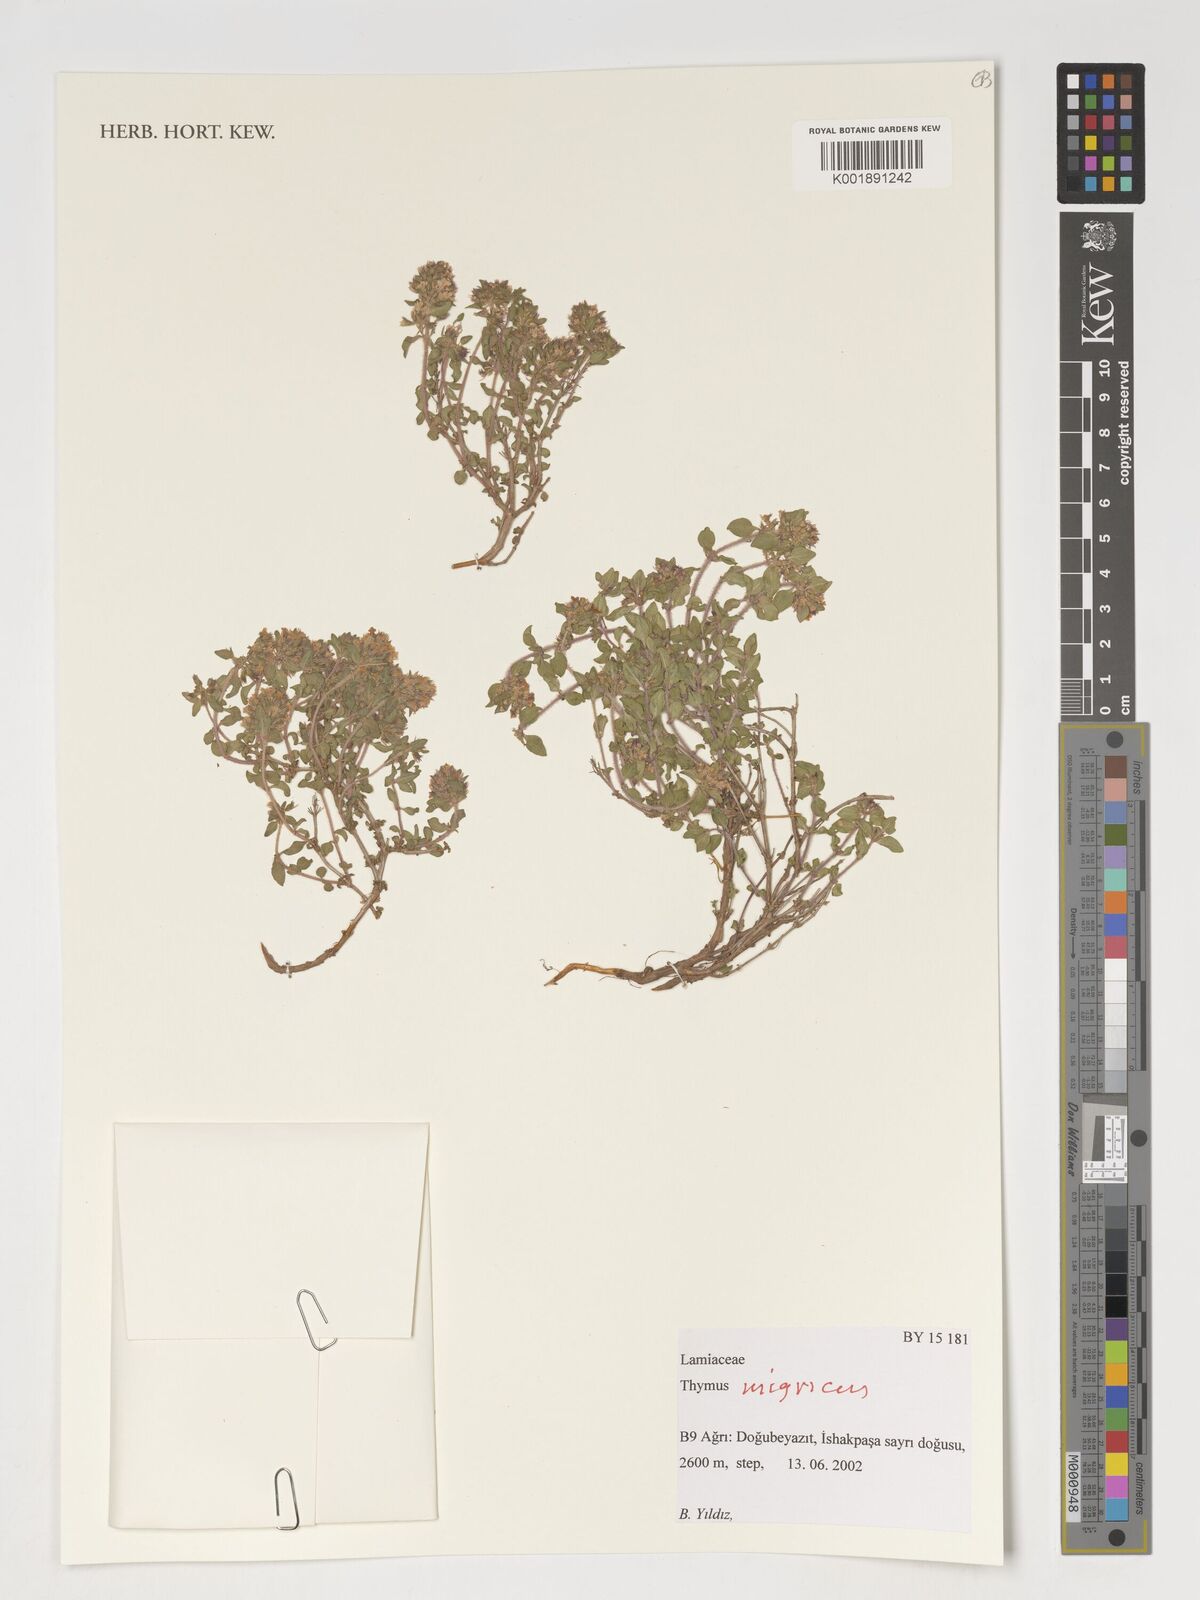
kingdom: Plantae
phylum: Tracheophyta
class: Magnoliopsida
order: Lamiales
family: Lamiaceae
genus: Thymus
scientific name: Thymus migricus
